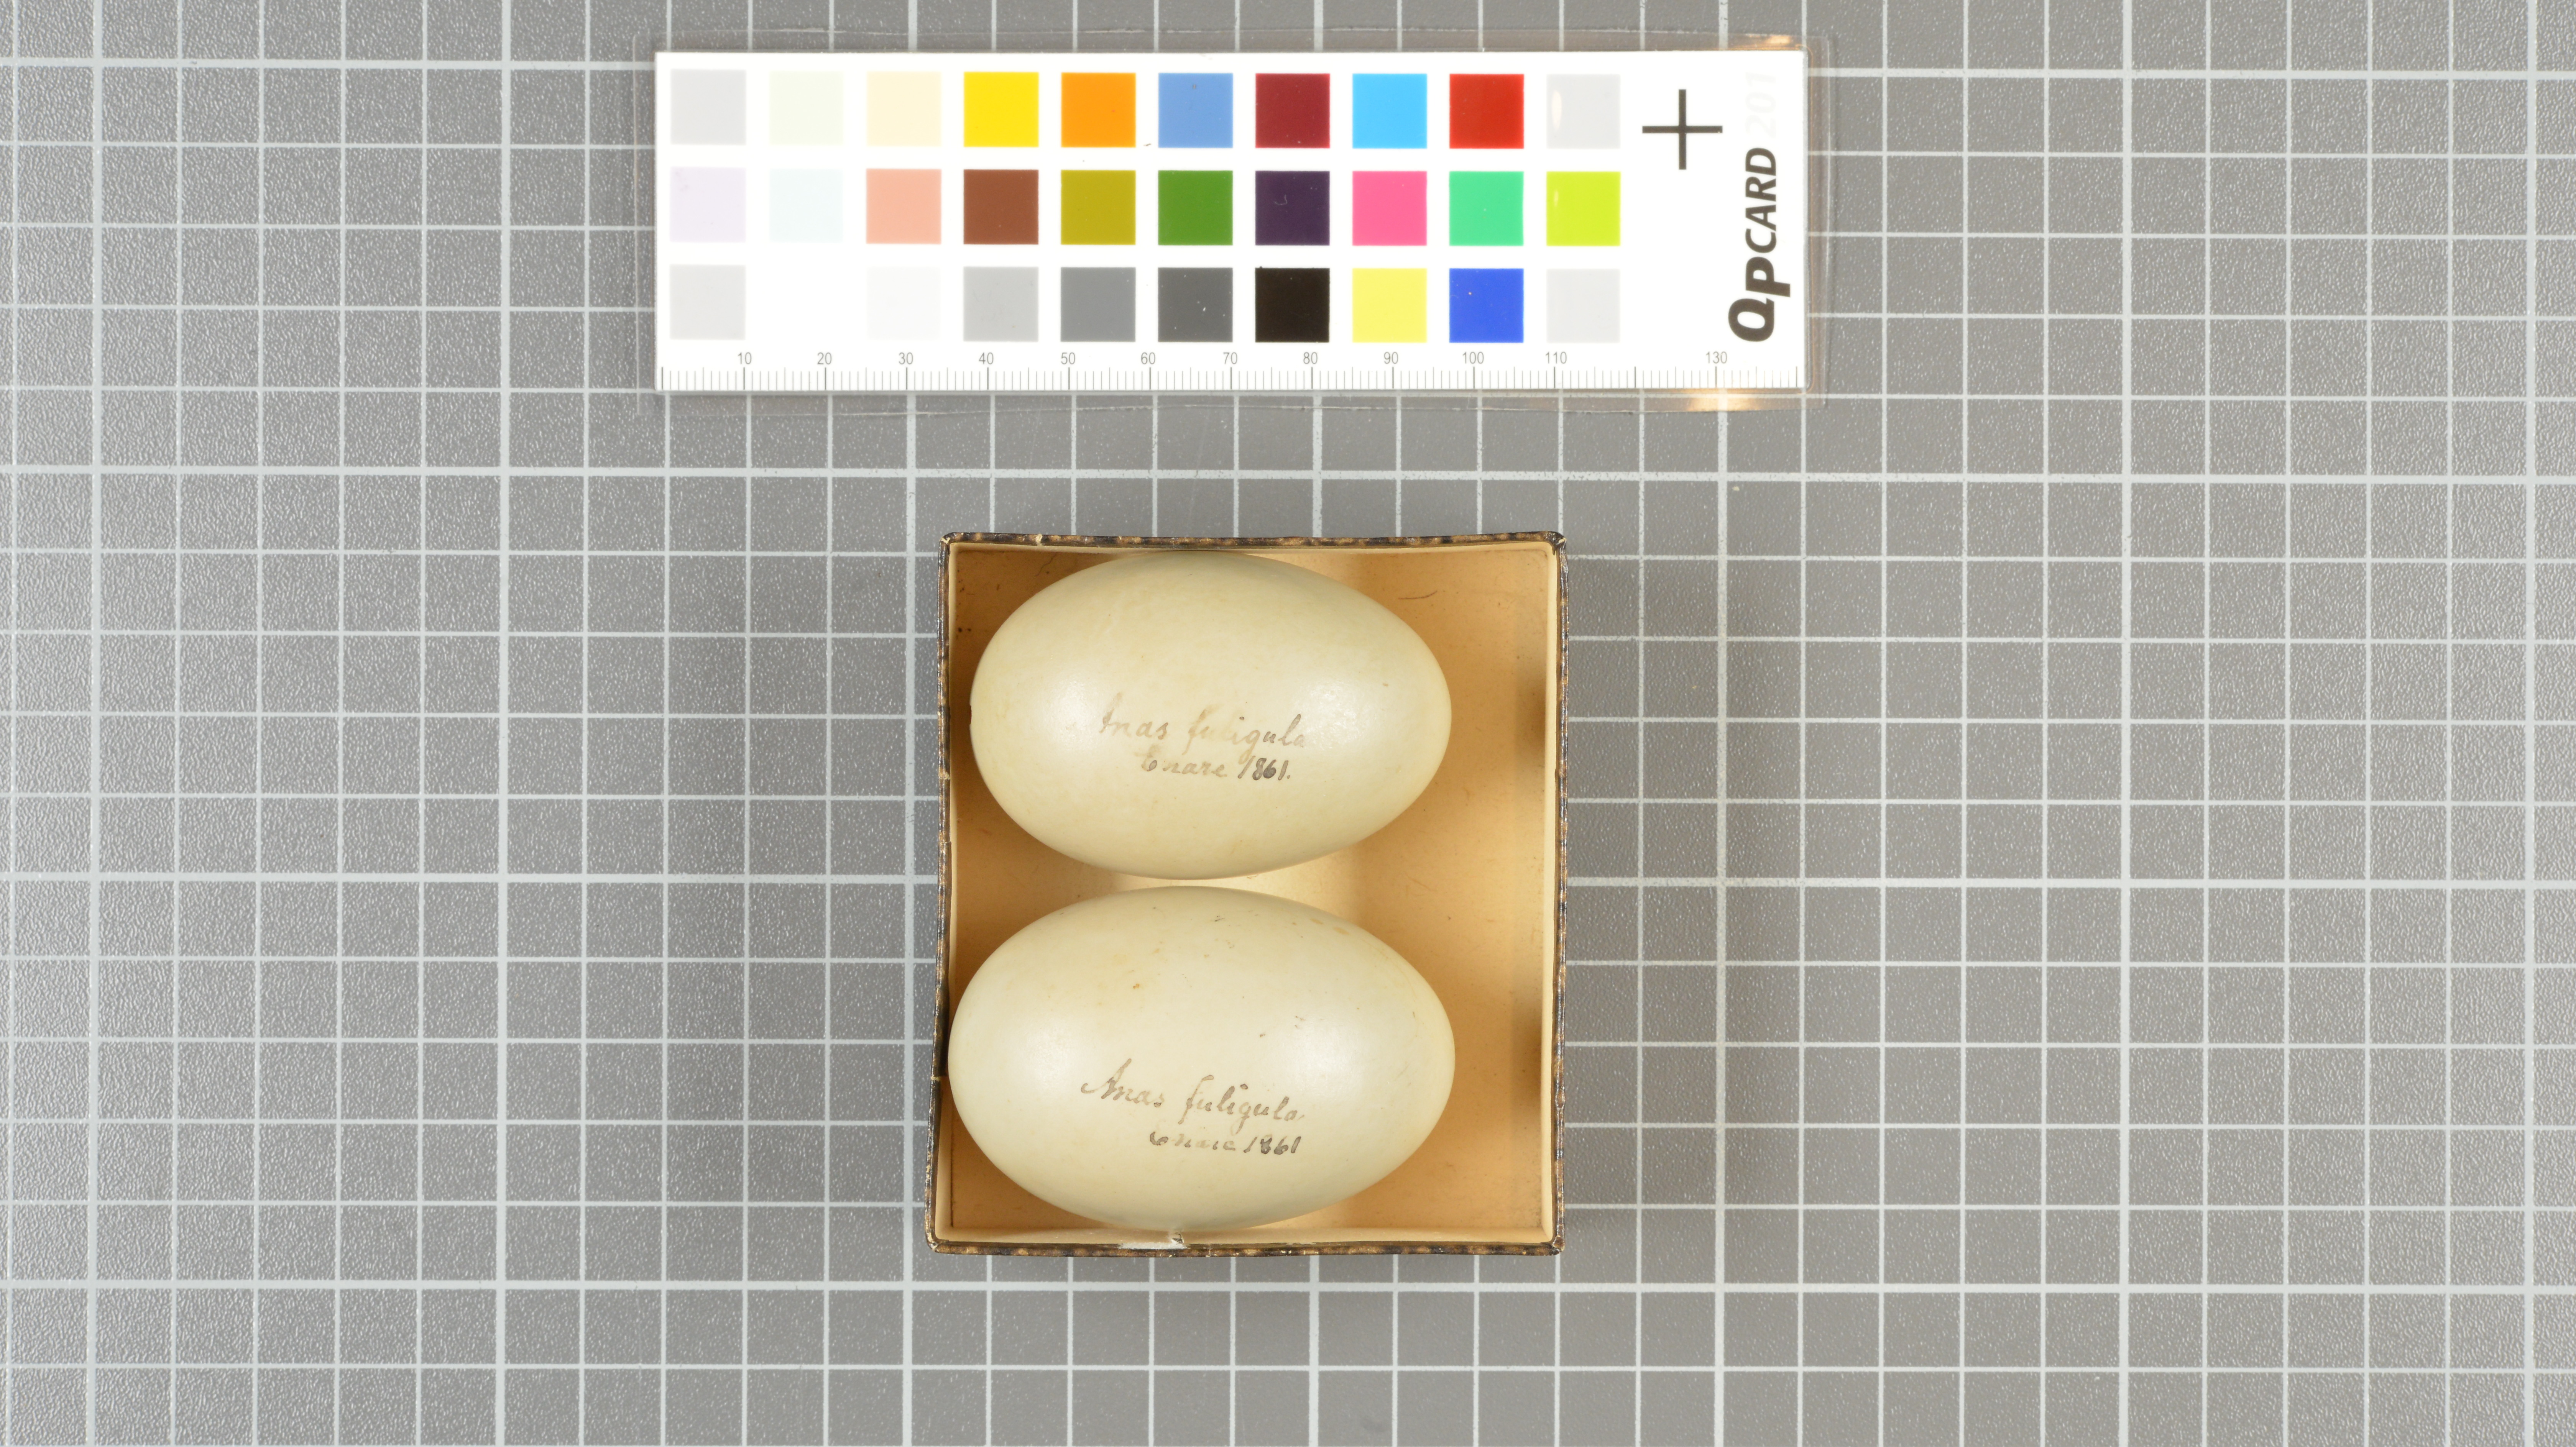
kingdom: Animalia
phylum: Chordata
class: Aves
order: Anseriformes
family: Anatidae
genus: Aythya
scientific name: Aythya fuligula
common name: Tufted duck
